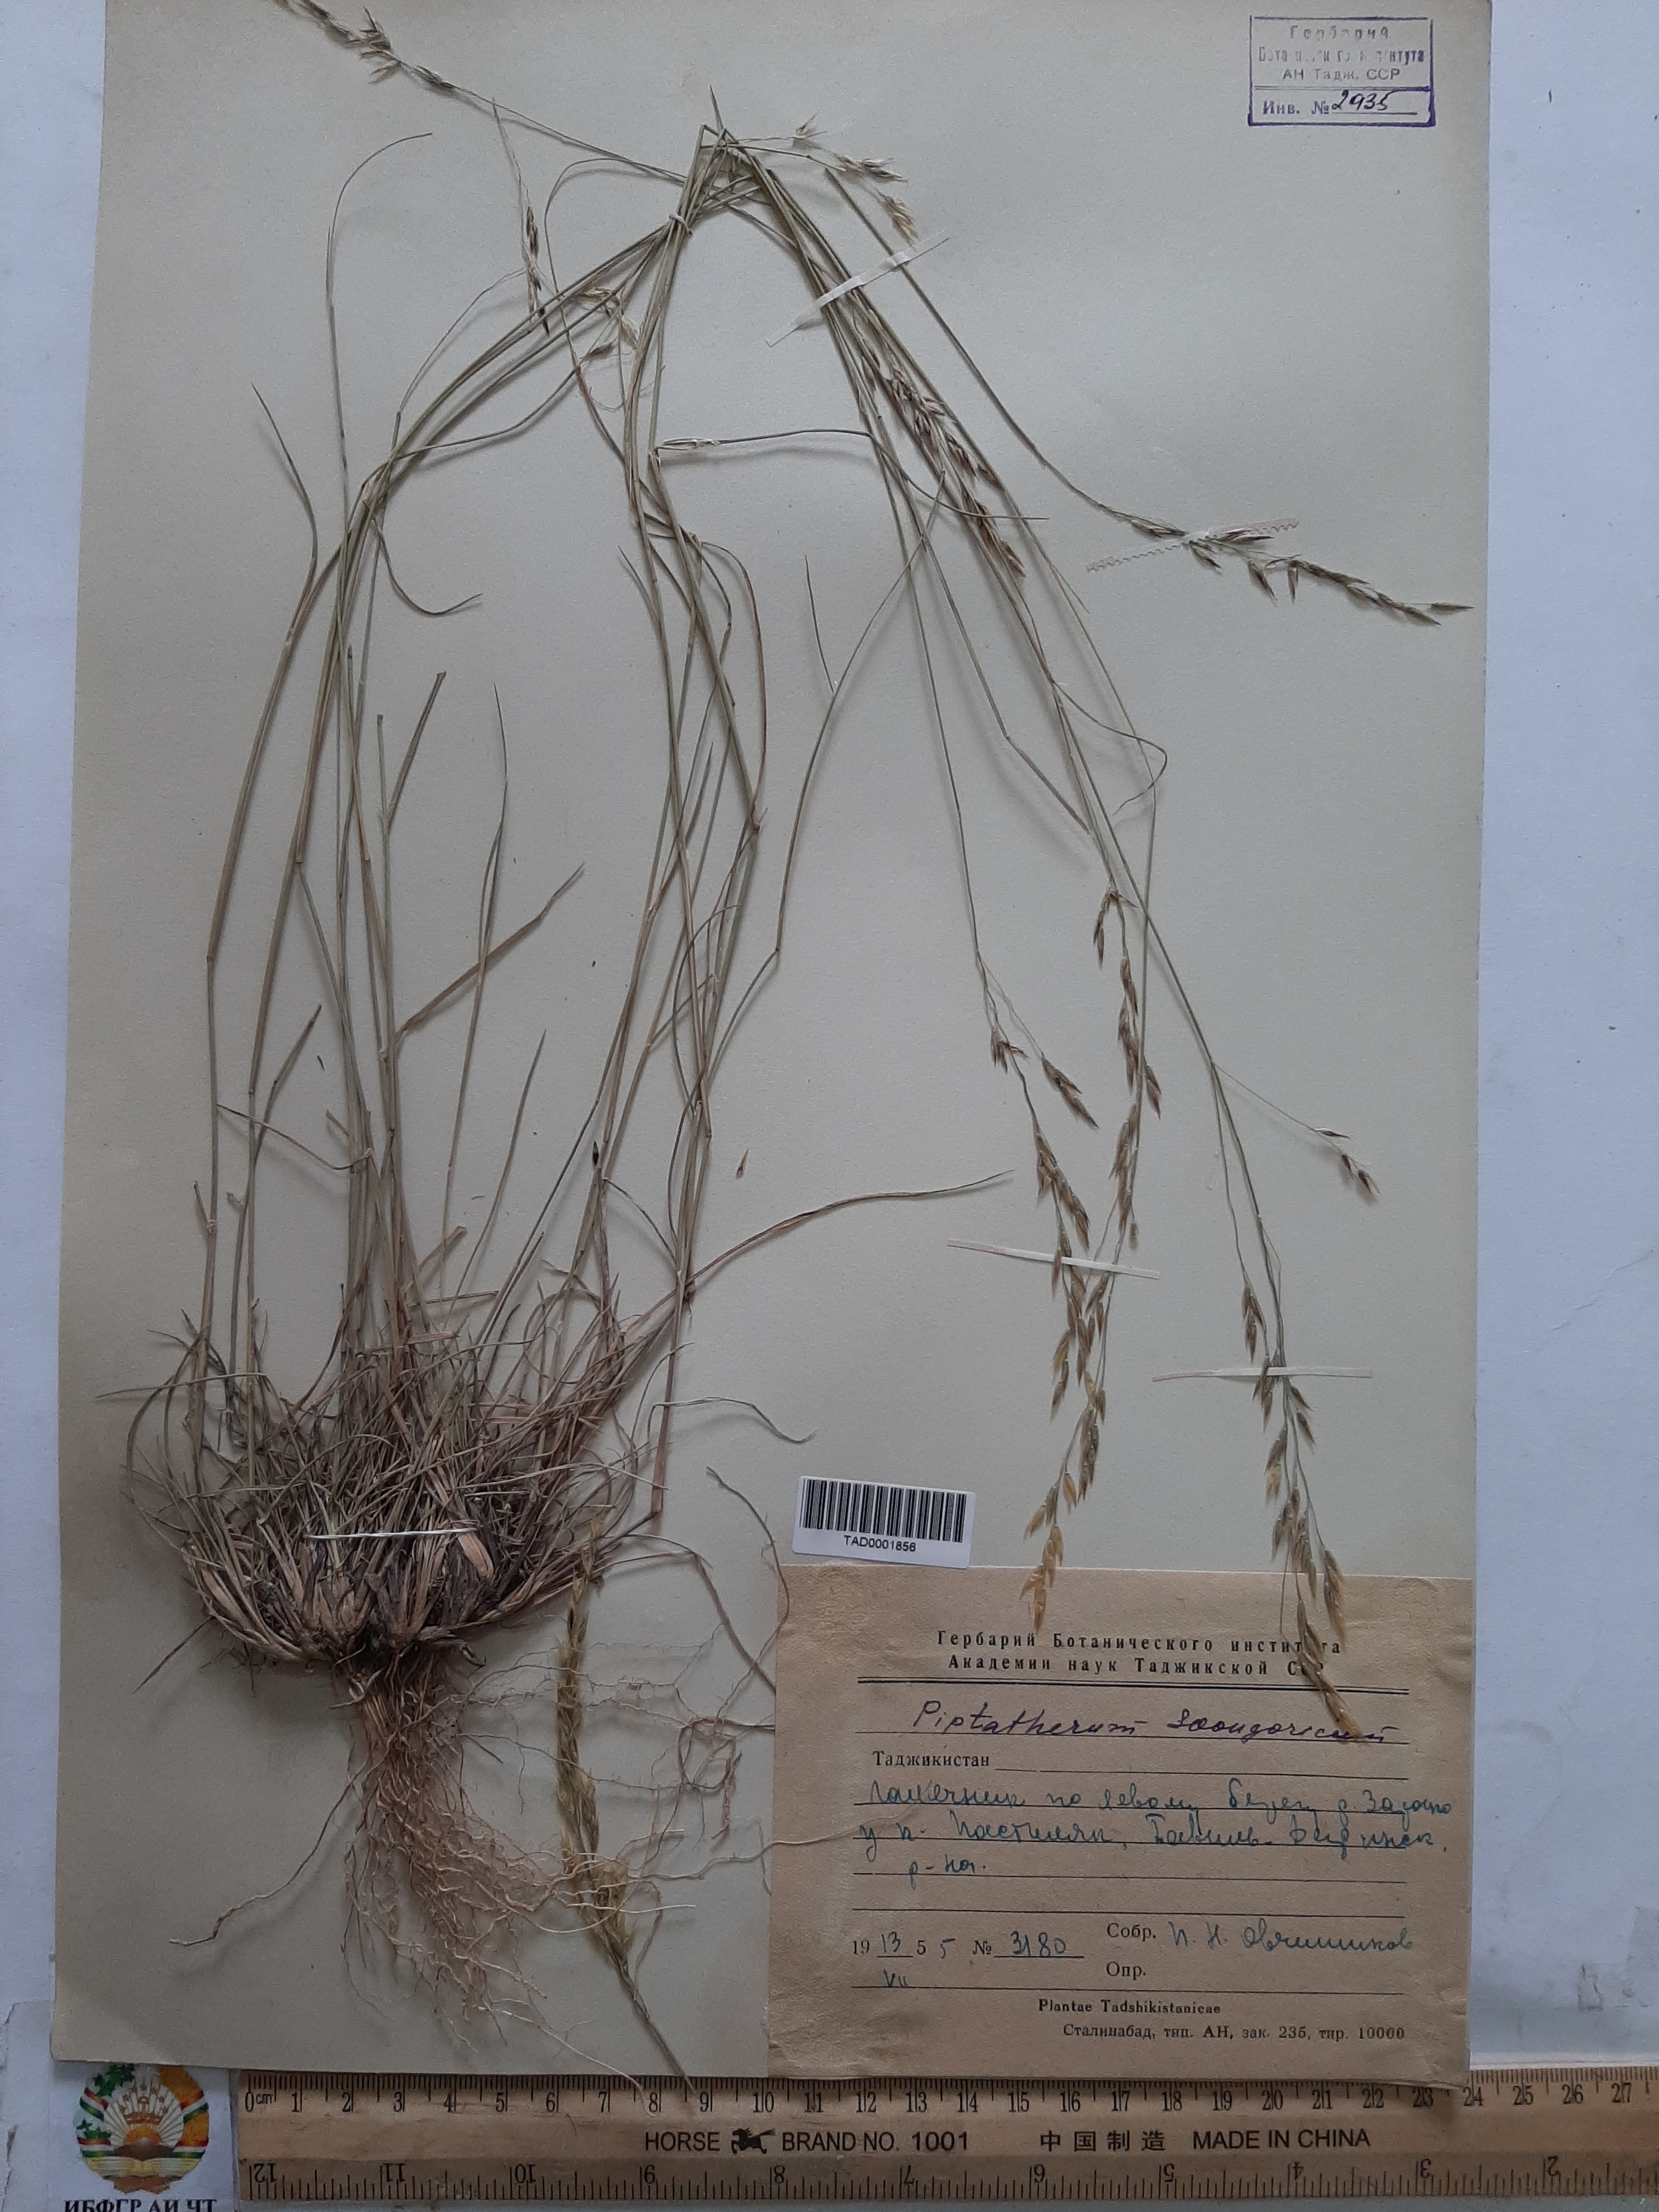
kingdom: Plantae
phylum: Tracheophyta
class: Liliopsida
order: Poales
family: Poaceae
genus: Piptatherum
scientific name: Piptatherum sogdianum
